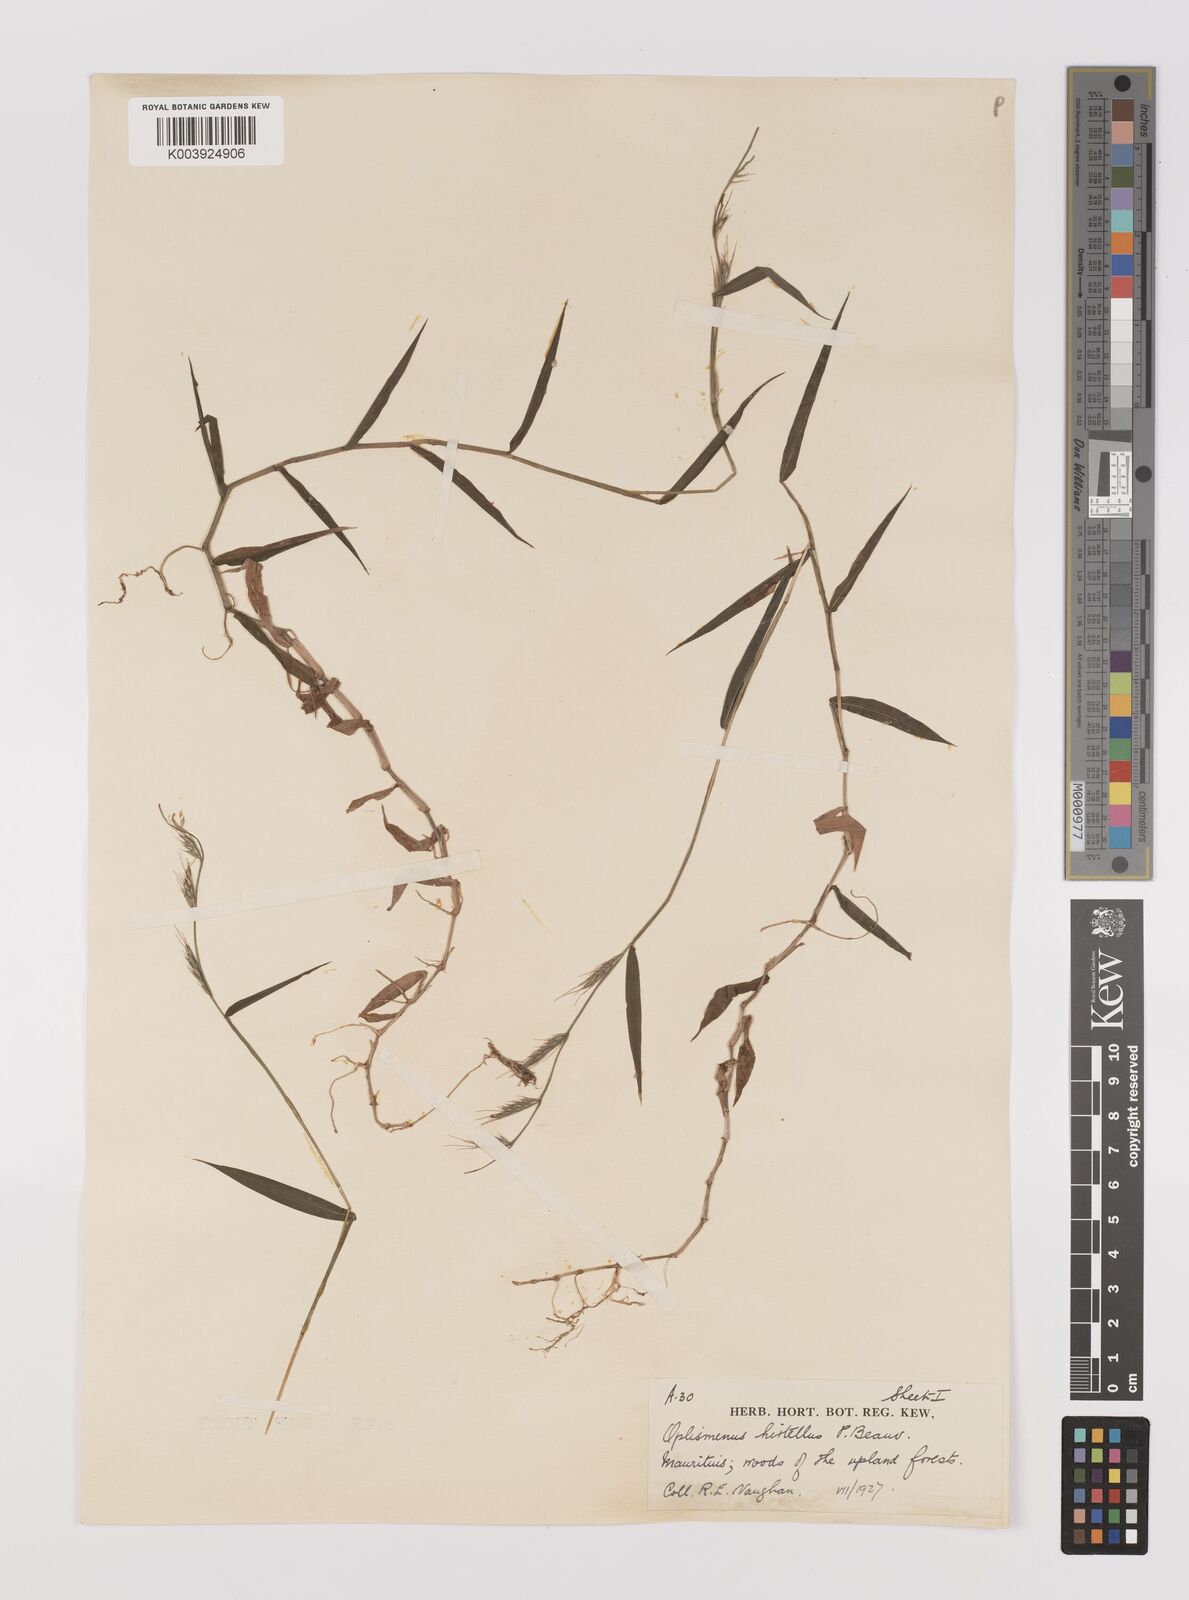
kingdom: Plantae
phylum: Tracheophyta
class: Liliopsida
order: Poales
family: Poaceae
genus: Oplismenus
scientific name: Oplismenus hirtellus
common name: Basketgrass
